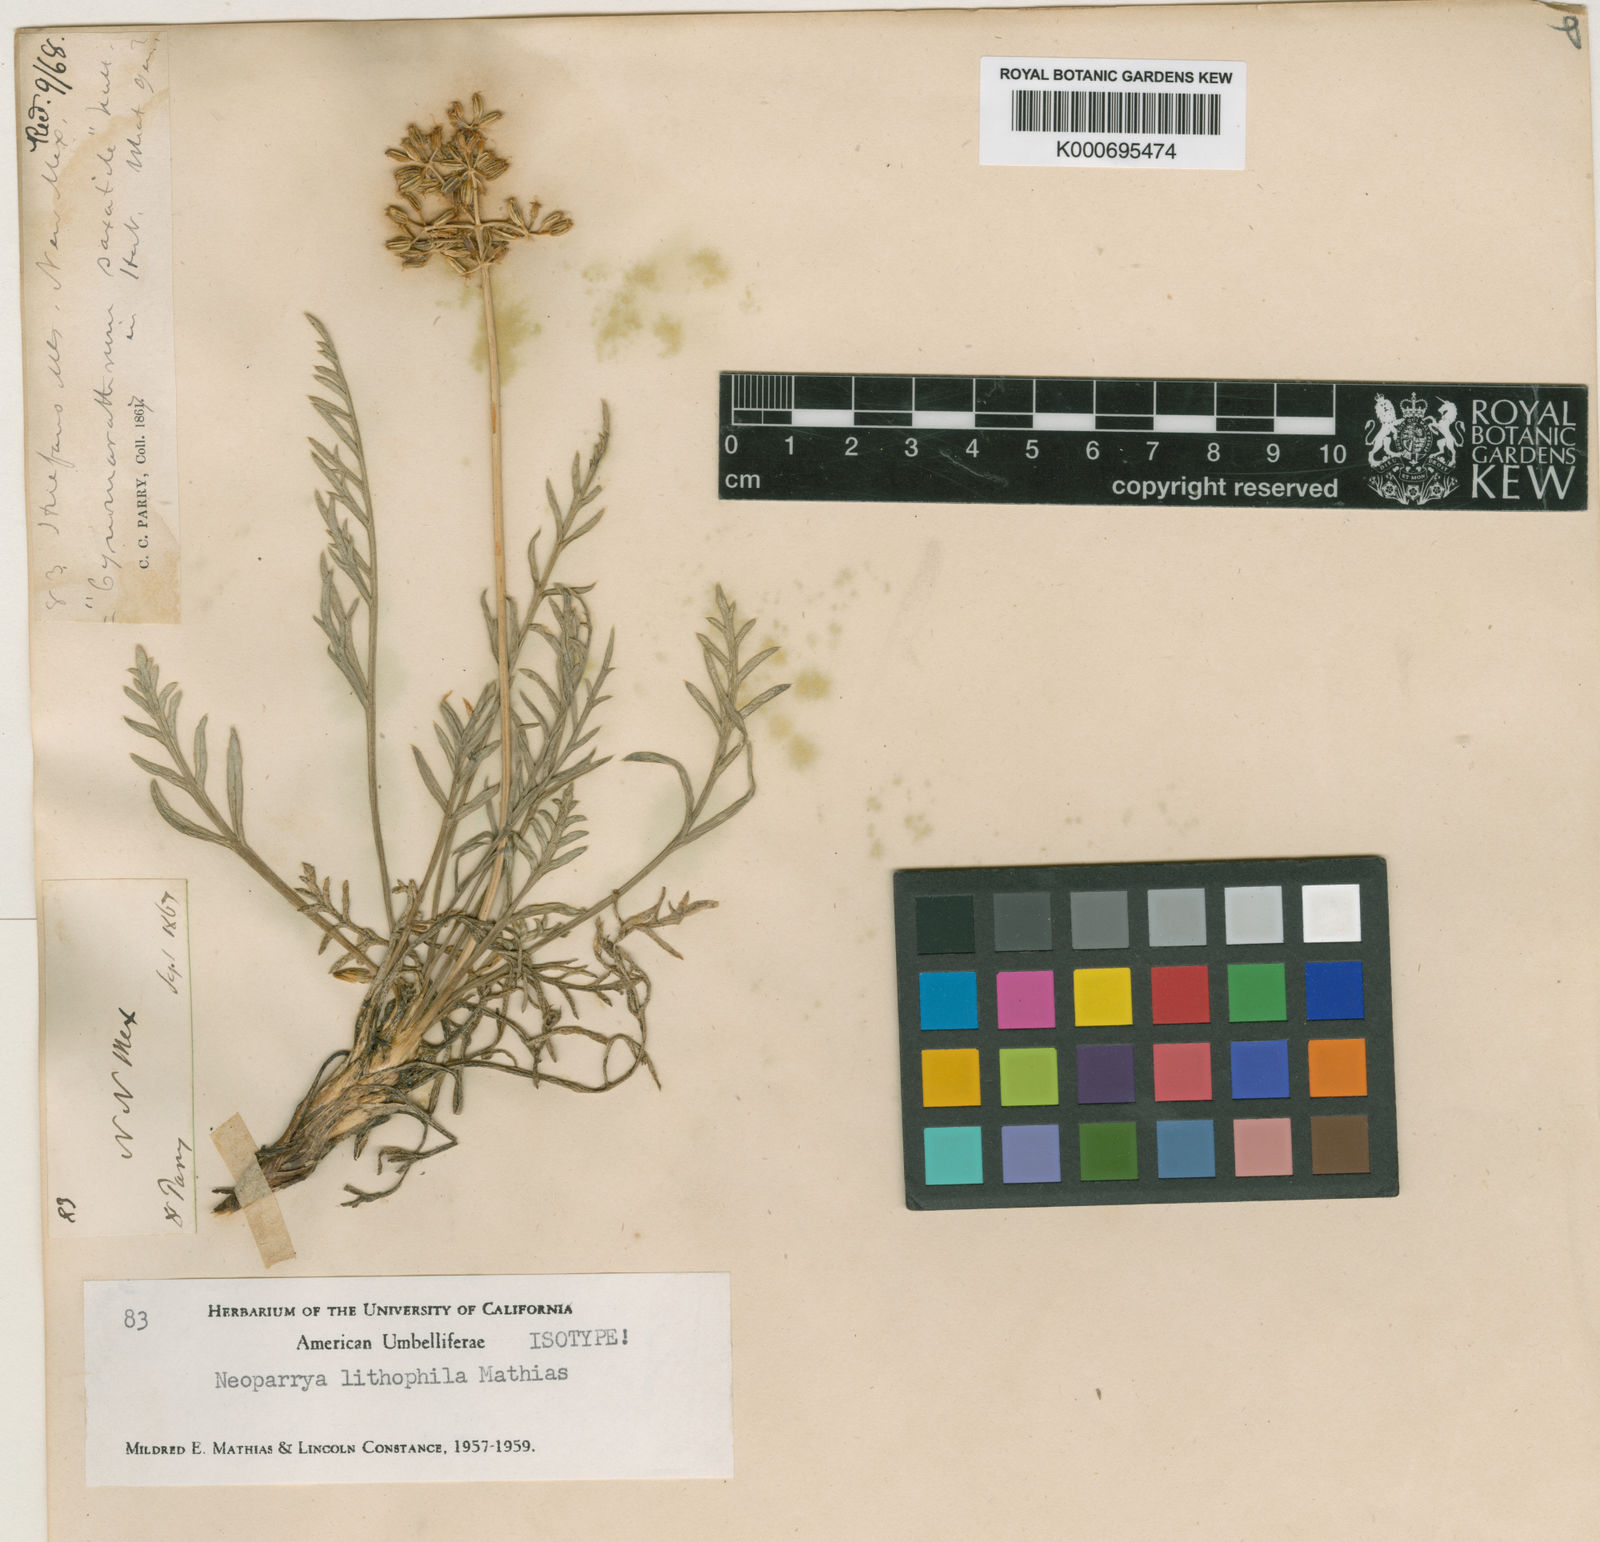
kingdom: Plantae
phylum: Tracheophyta
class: Magnoliopsida
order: Apiales
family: Apiaceae
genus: Neoparrya
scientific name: Neoparrya lithophila
